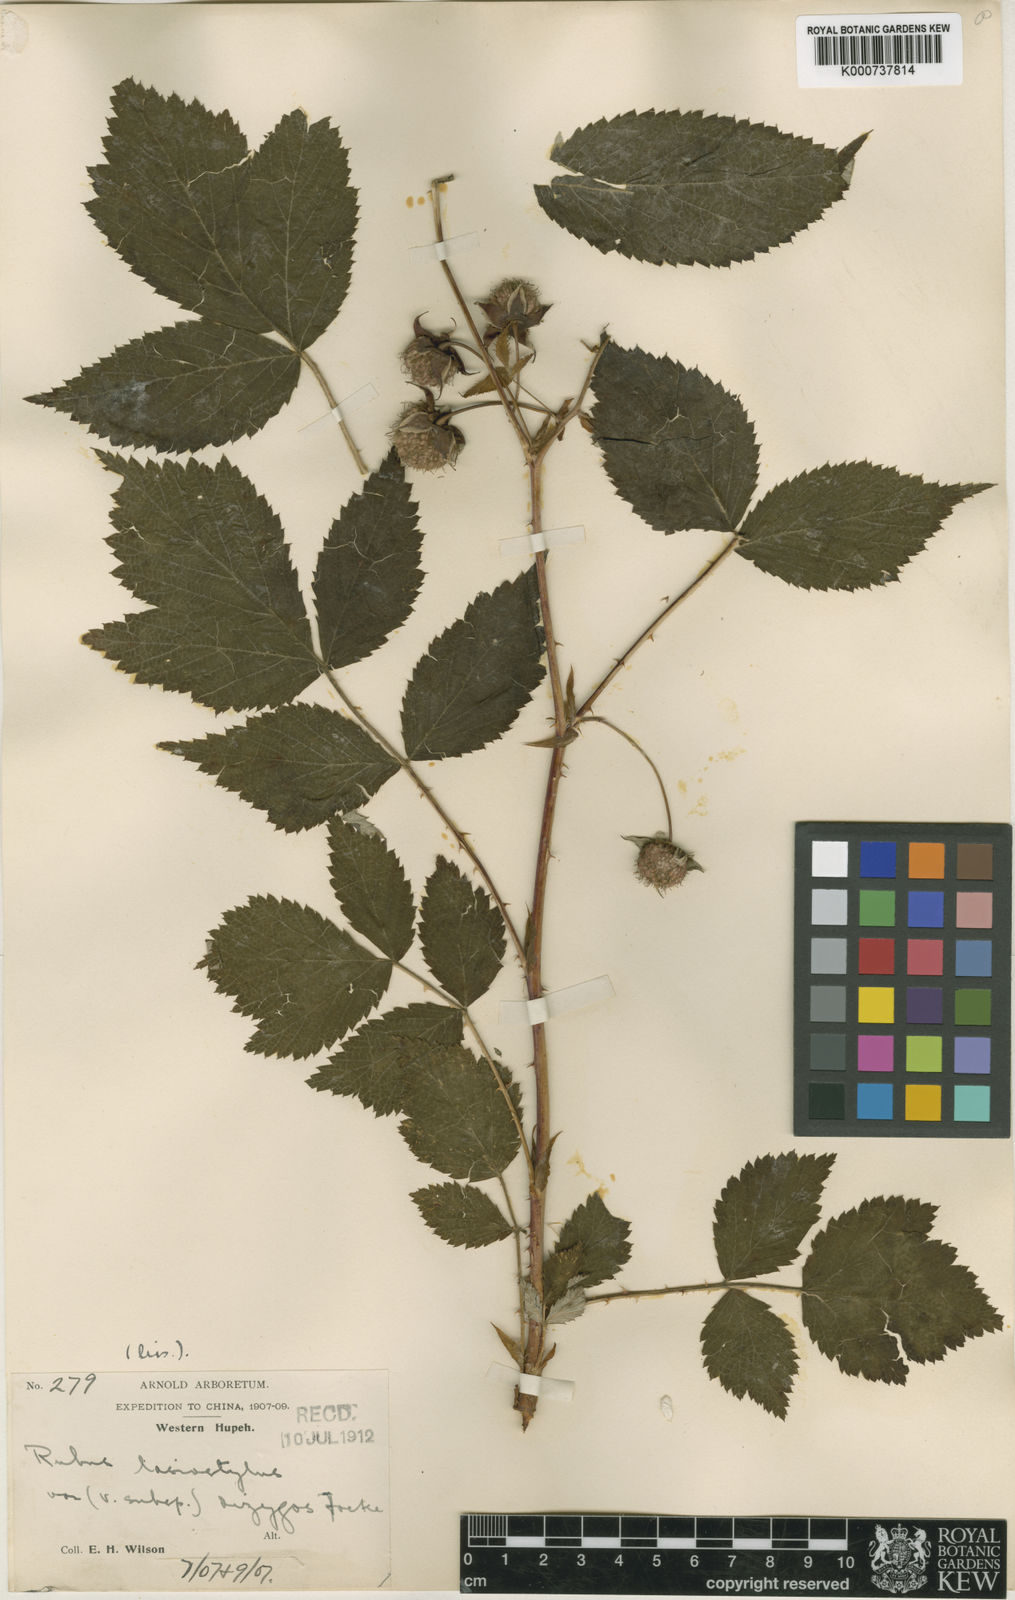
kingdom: Plantae
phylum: Tracheophyta
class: Magnoliopsida
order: Rosales
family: Rosaceae
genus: Rubus
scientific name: Rubus lasiostylus
